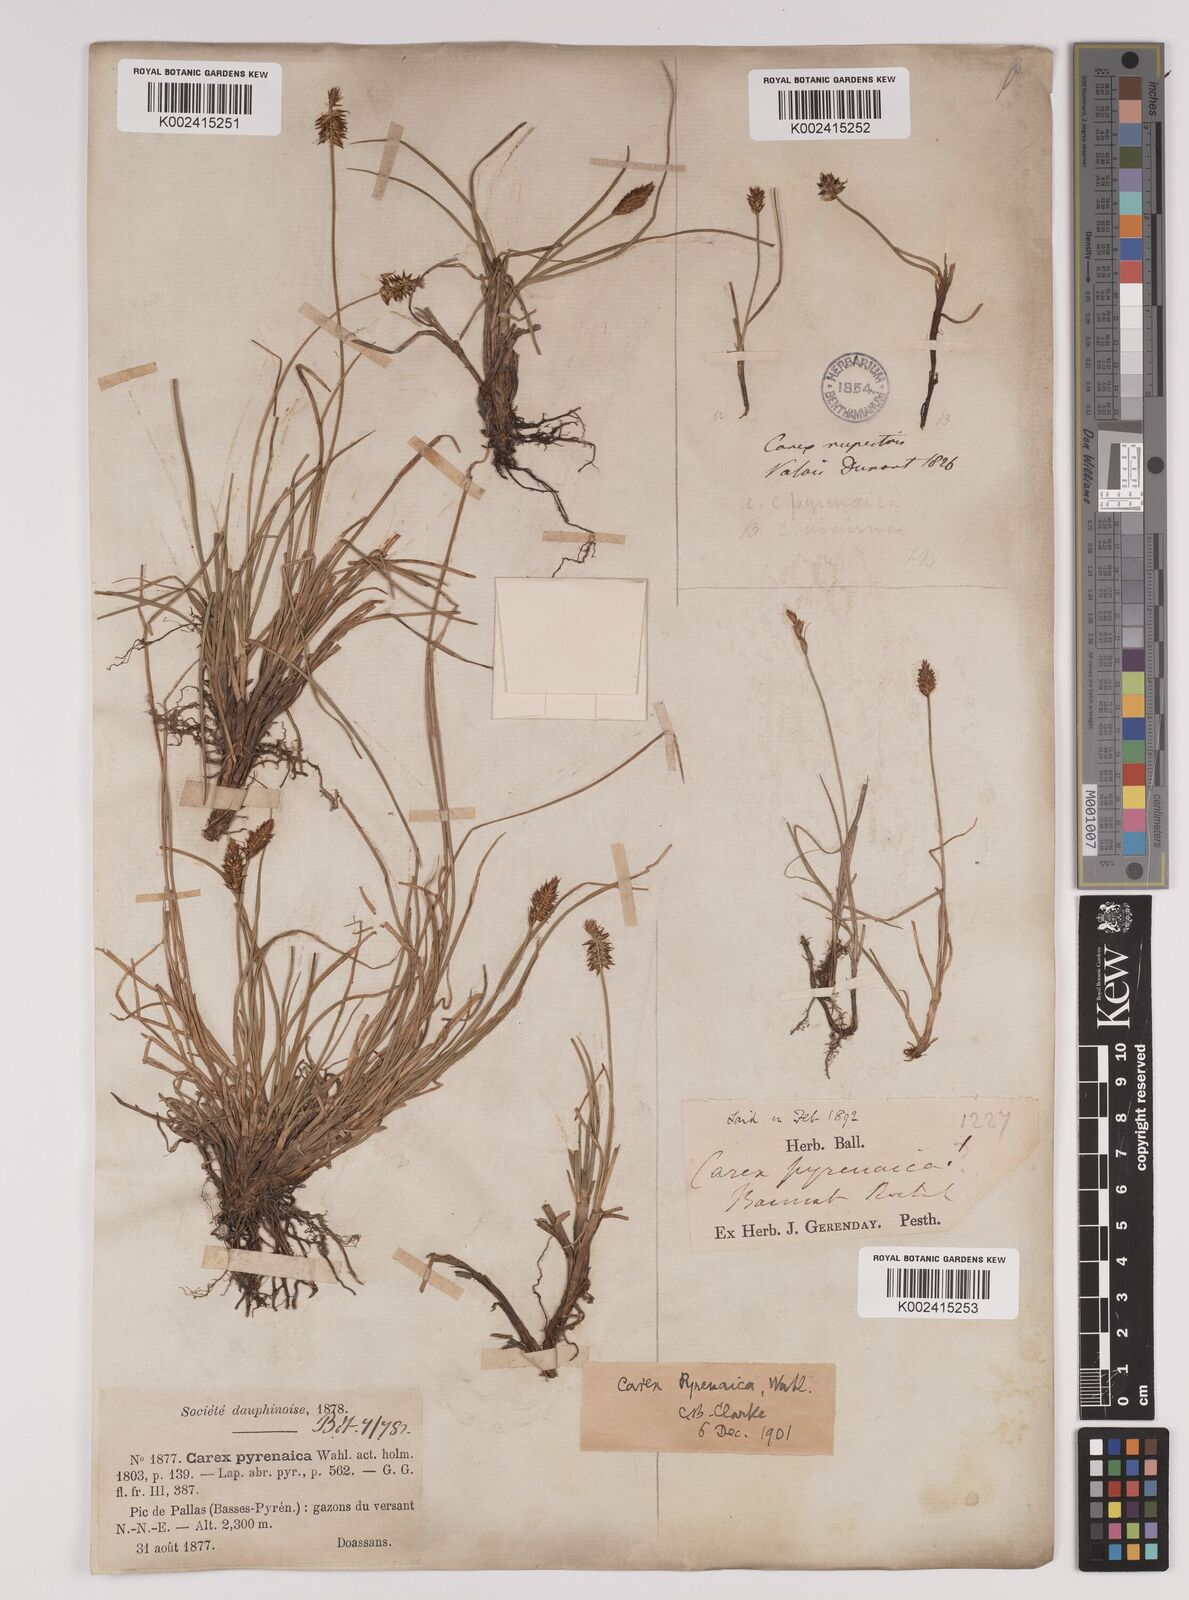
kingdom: Plantae
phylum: Tracheophyta
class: Liliopsida
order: Poales
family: Cyperaceae
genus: Carex
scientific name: Carex acicularis
